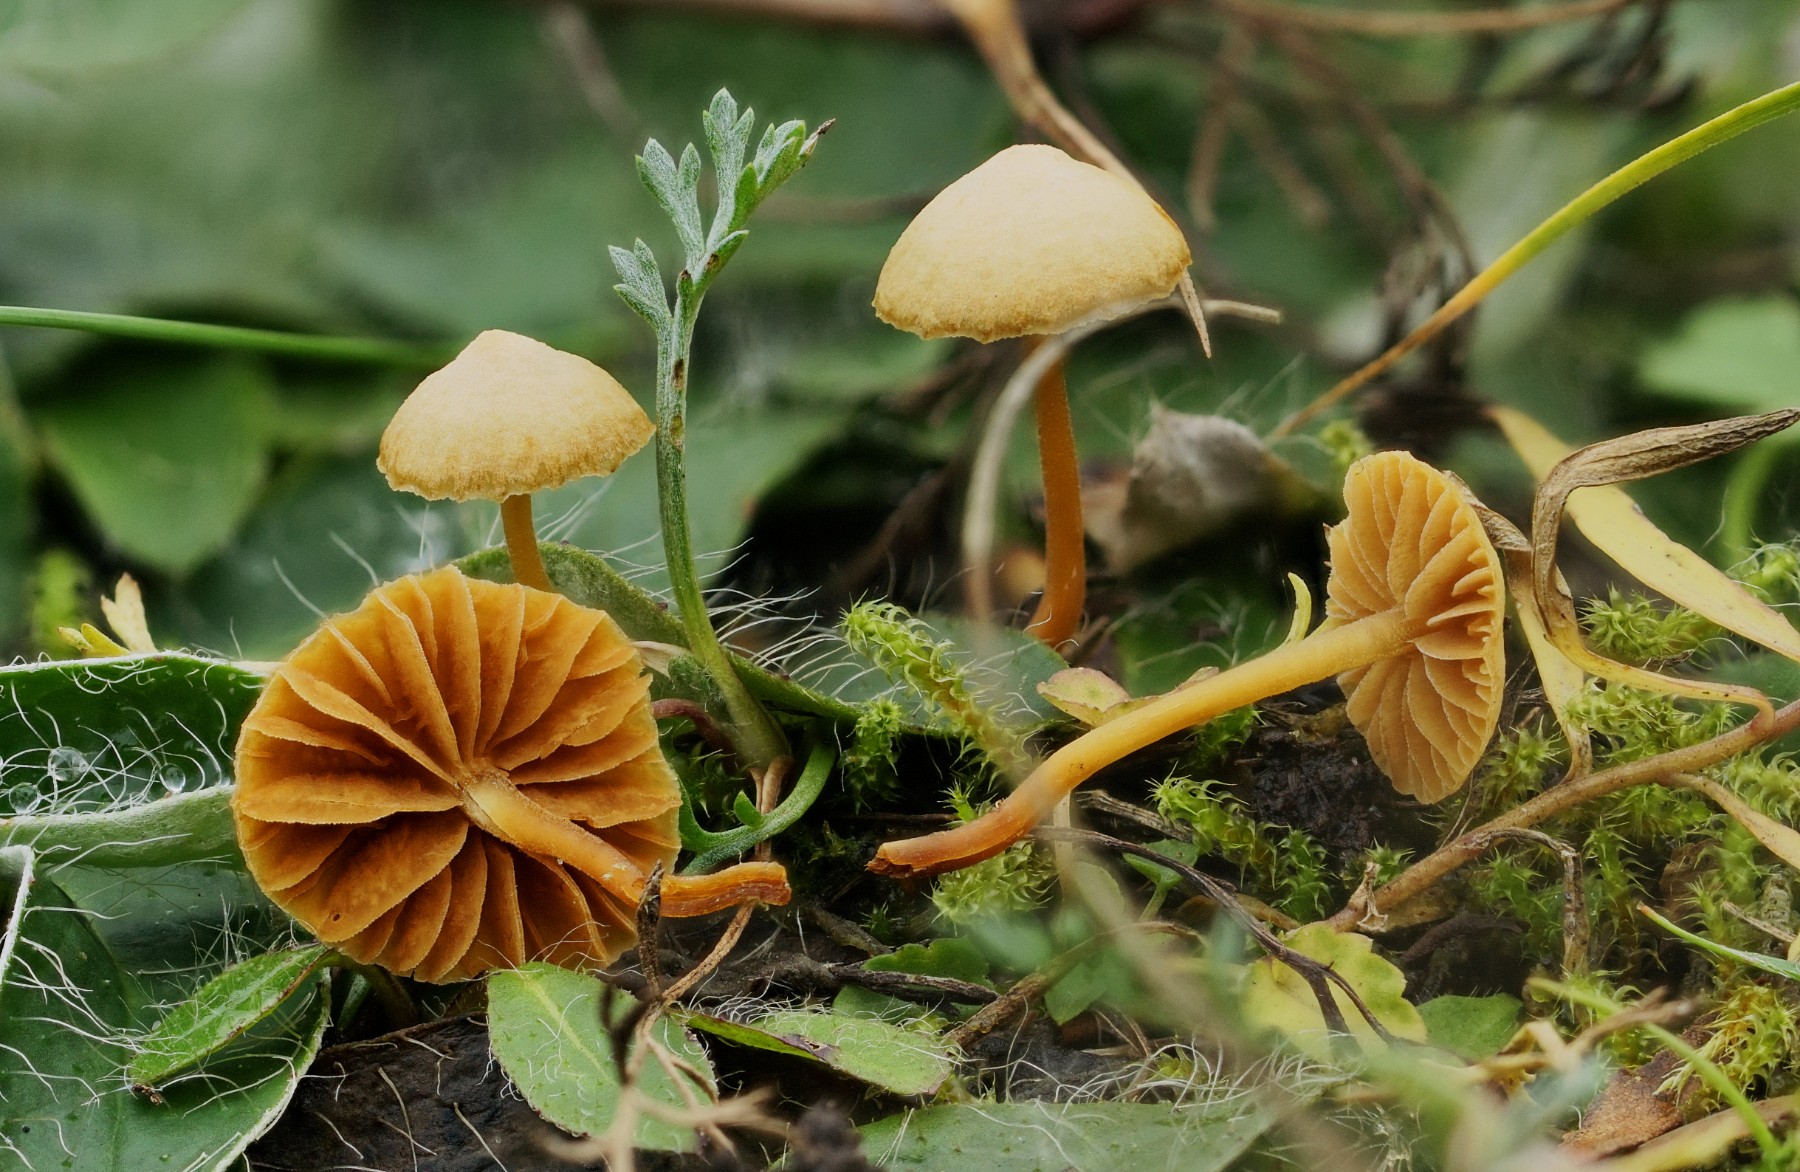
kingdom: Fungi
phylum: Basidiomycota
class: Agaricomycetes
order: Agaricales
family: Hymenogastraceae
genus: Galerina
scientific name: Galerina
